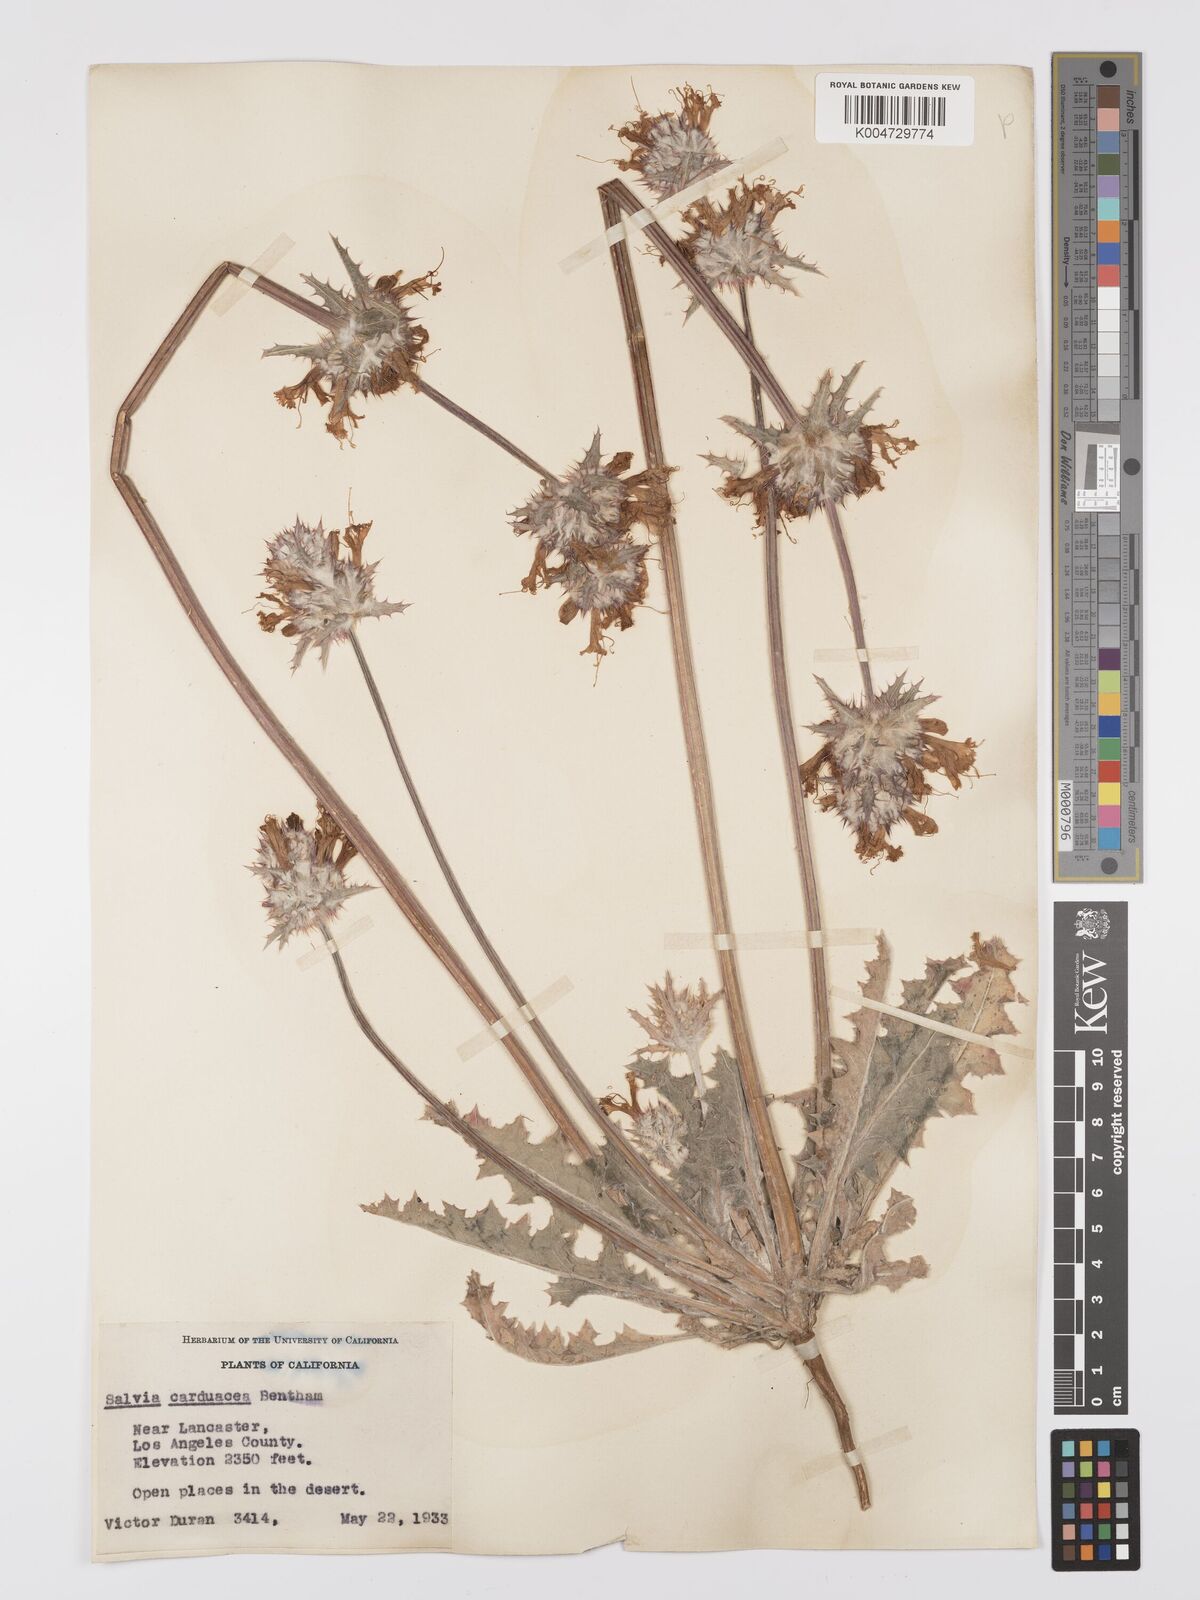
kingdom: Plantae
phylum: Tracheophyta
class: Magnoliopsida
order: Lamiales
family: Lamiaceae
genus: Salvia
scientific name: Salvia carduacea
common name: Thistle sage
